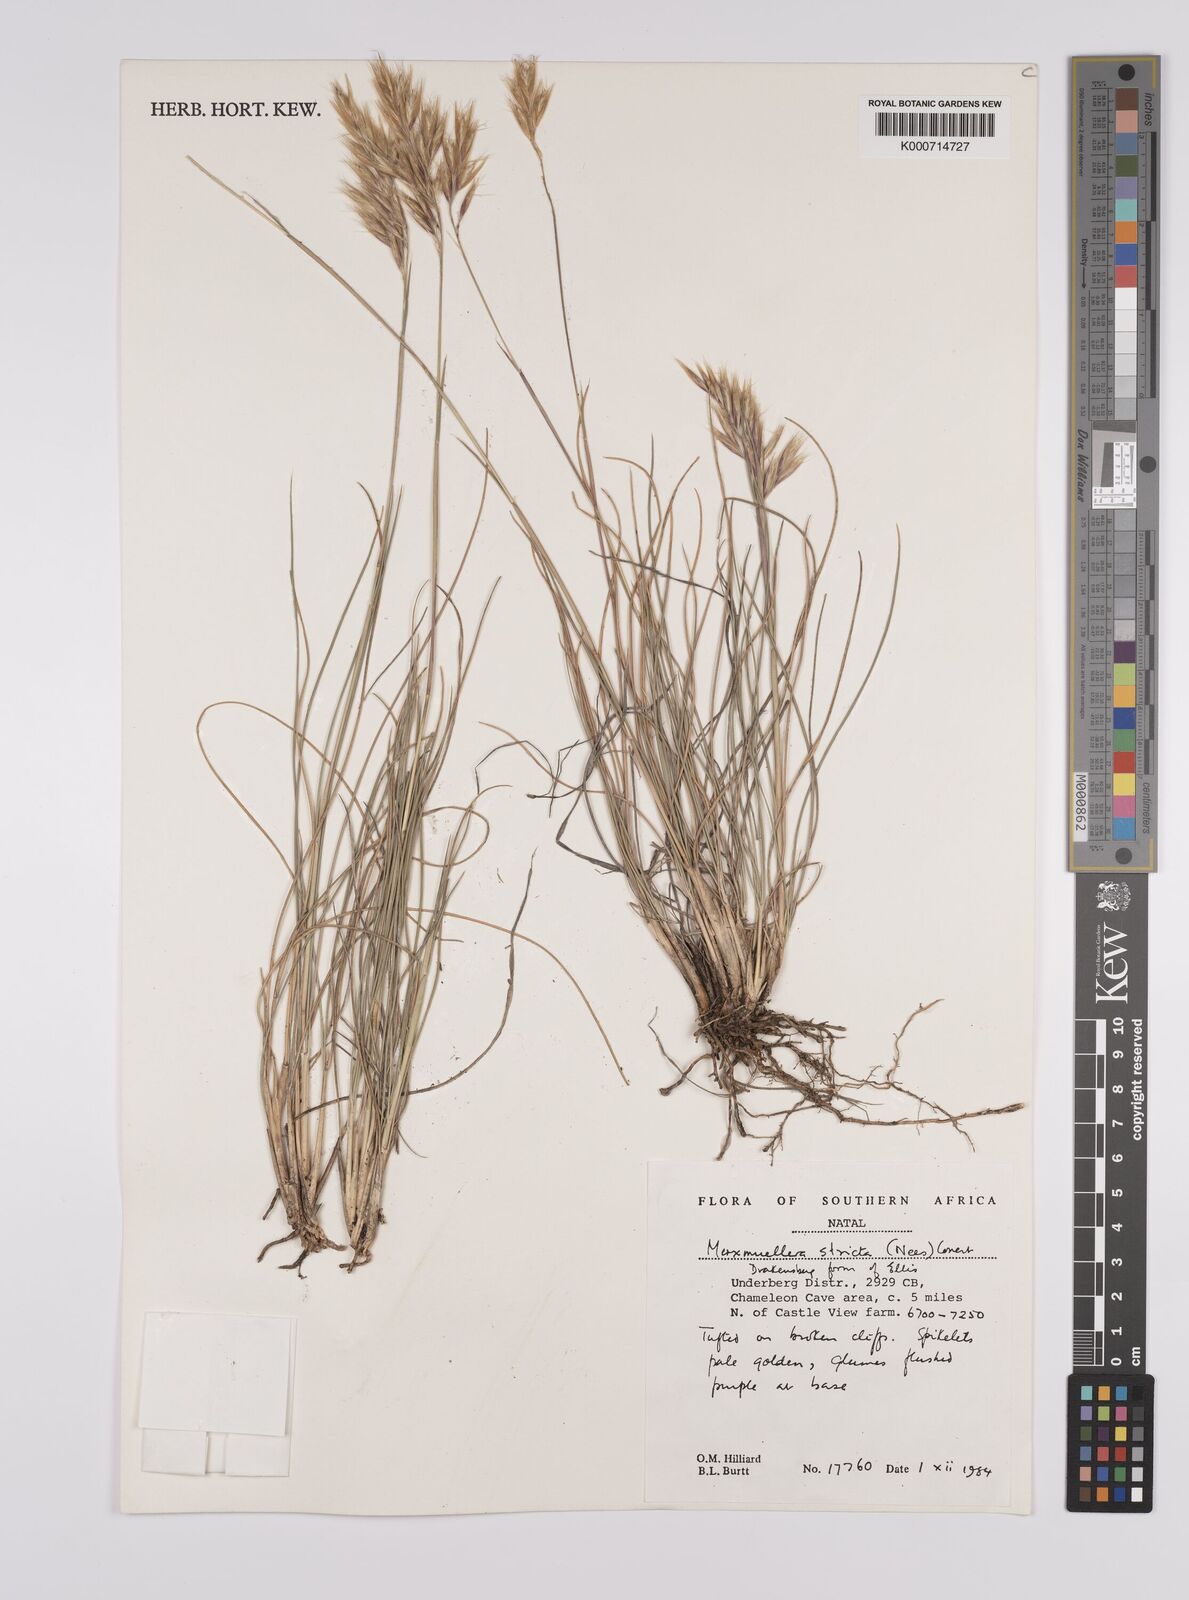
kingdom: Plantae
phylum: Tracheophyta
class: Liliopsida
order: Poales
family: Poaceae
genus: Rytidosperma
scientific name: Rytidosperma
